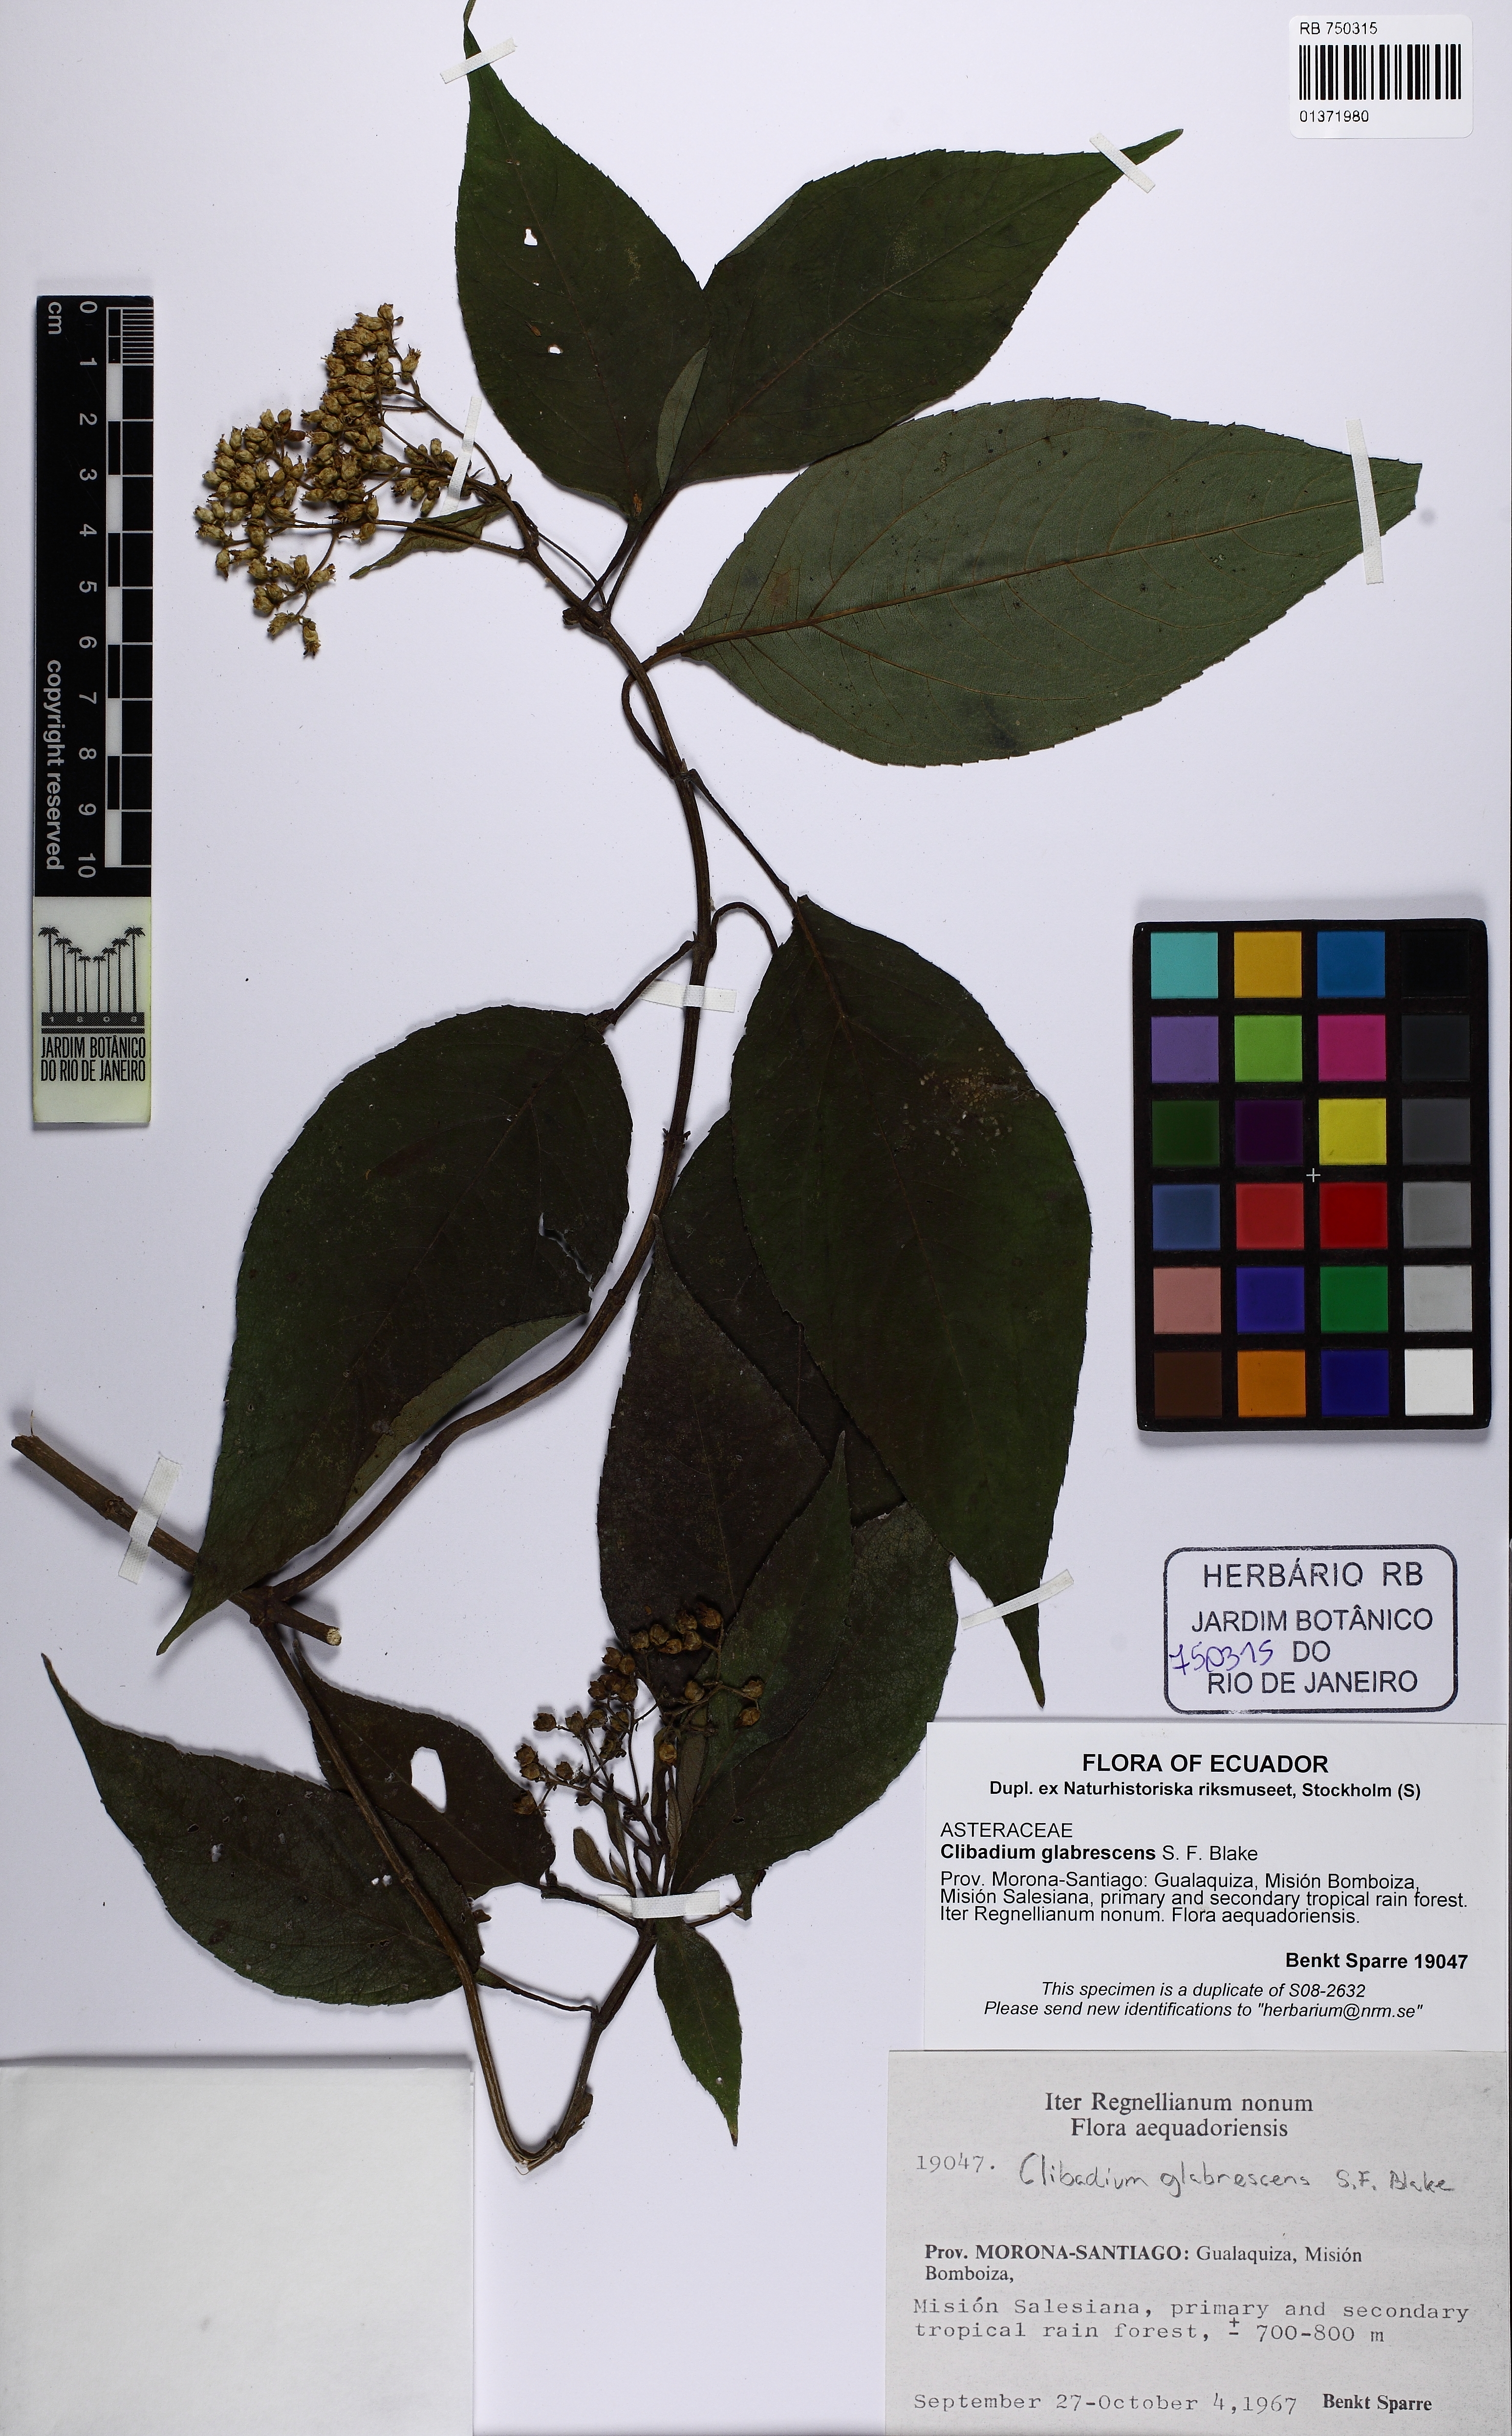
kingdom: Plantae
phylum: Tracheophyta
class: Magnoliopsida
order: Asterales
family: Asteraceae
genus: Clibadium
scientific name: Clibadium glabrescens
